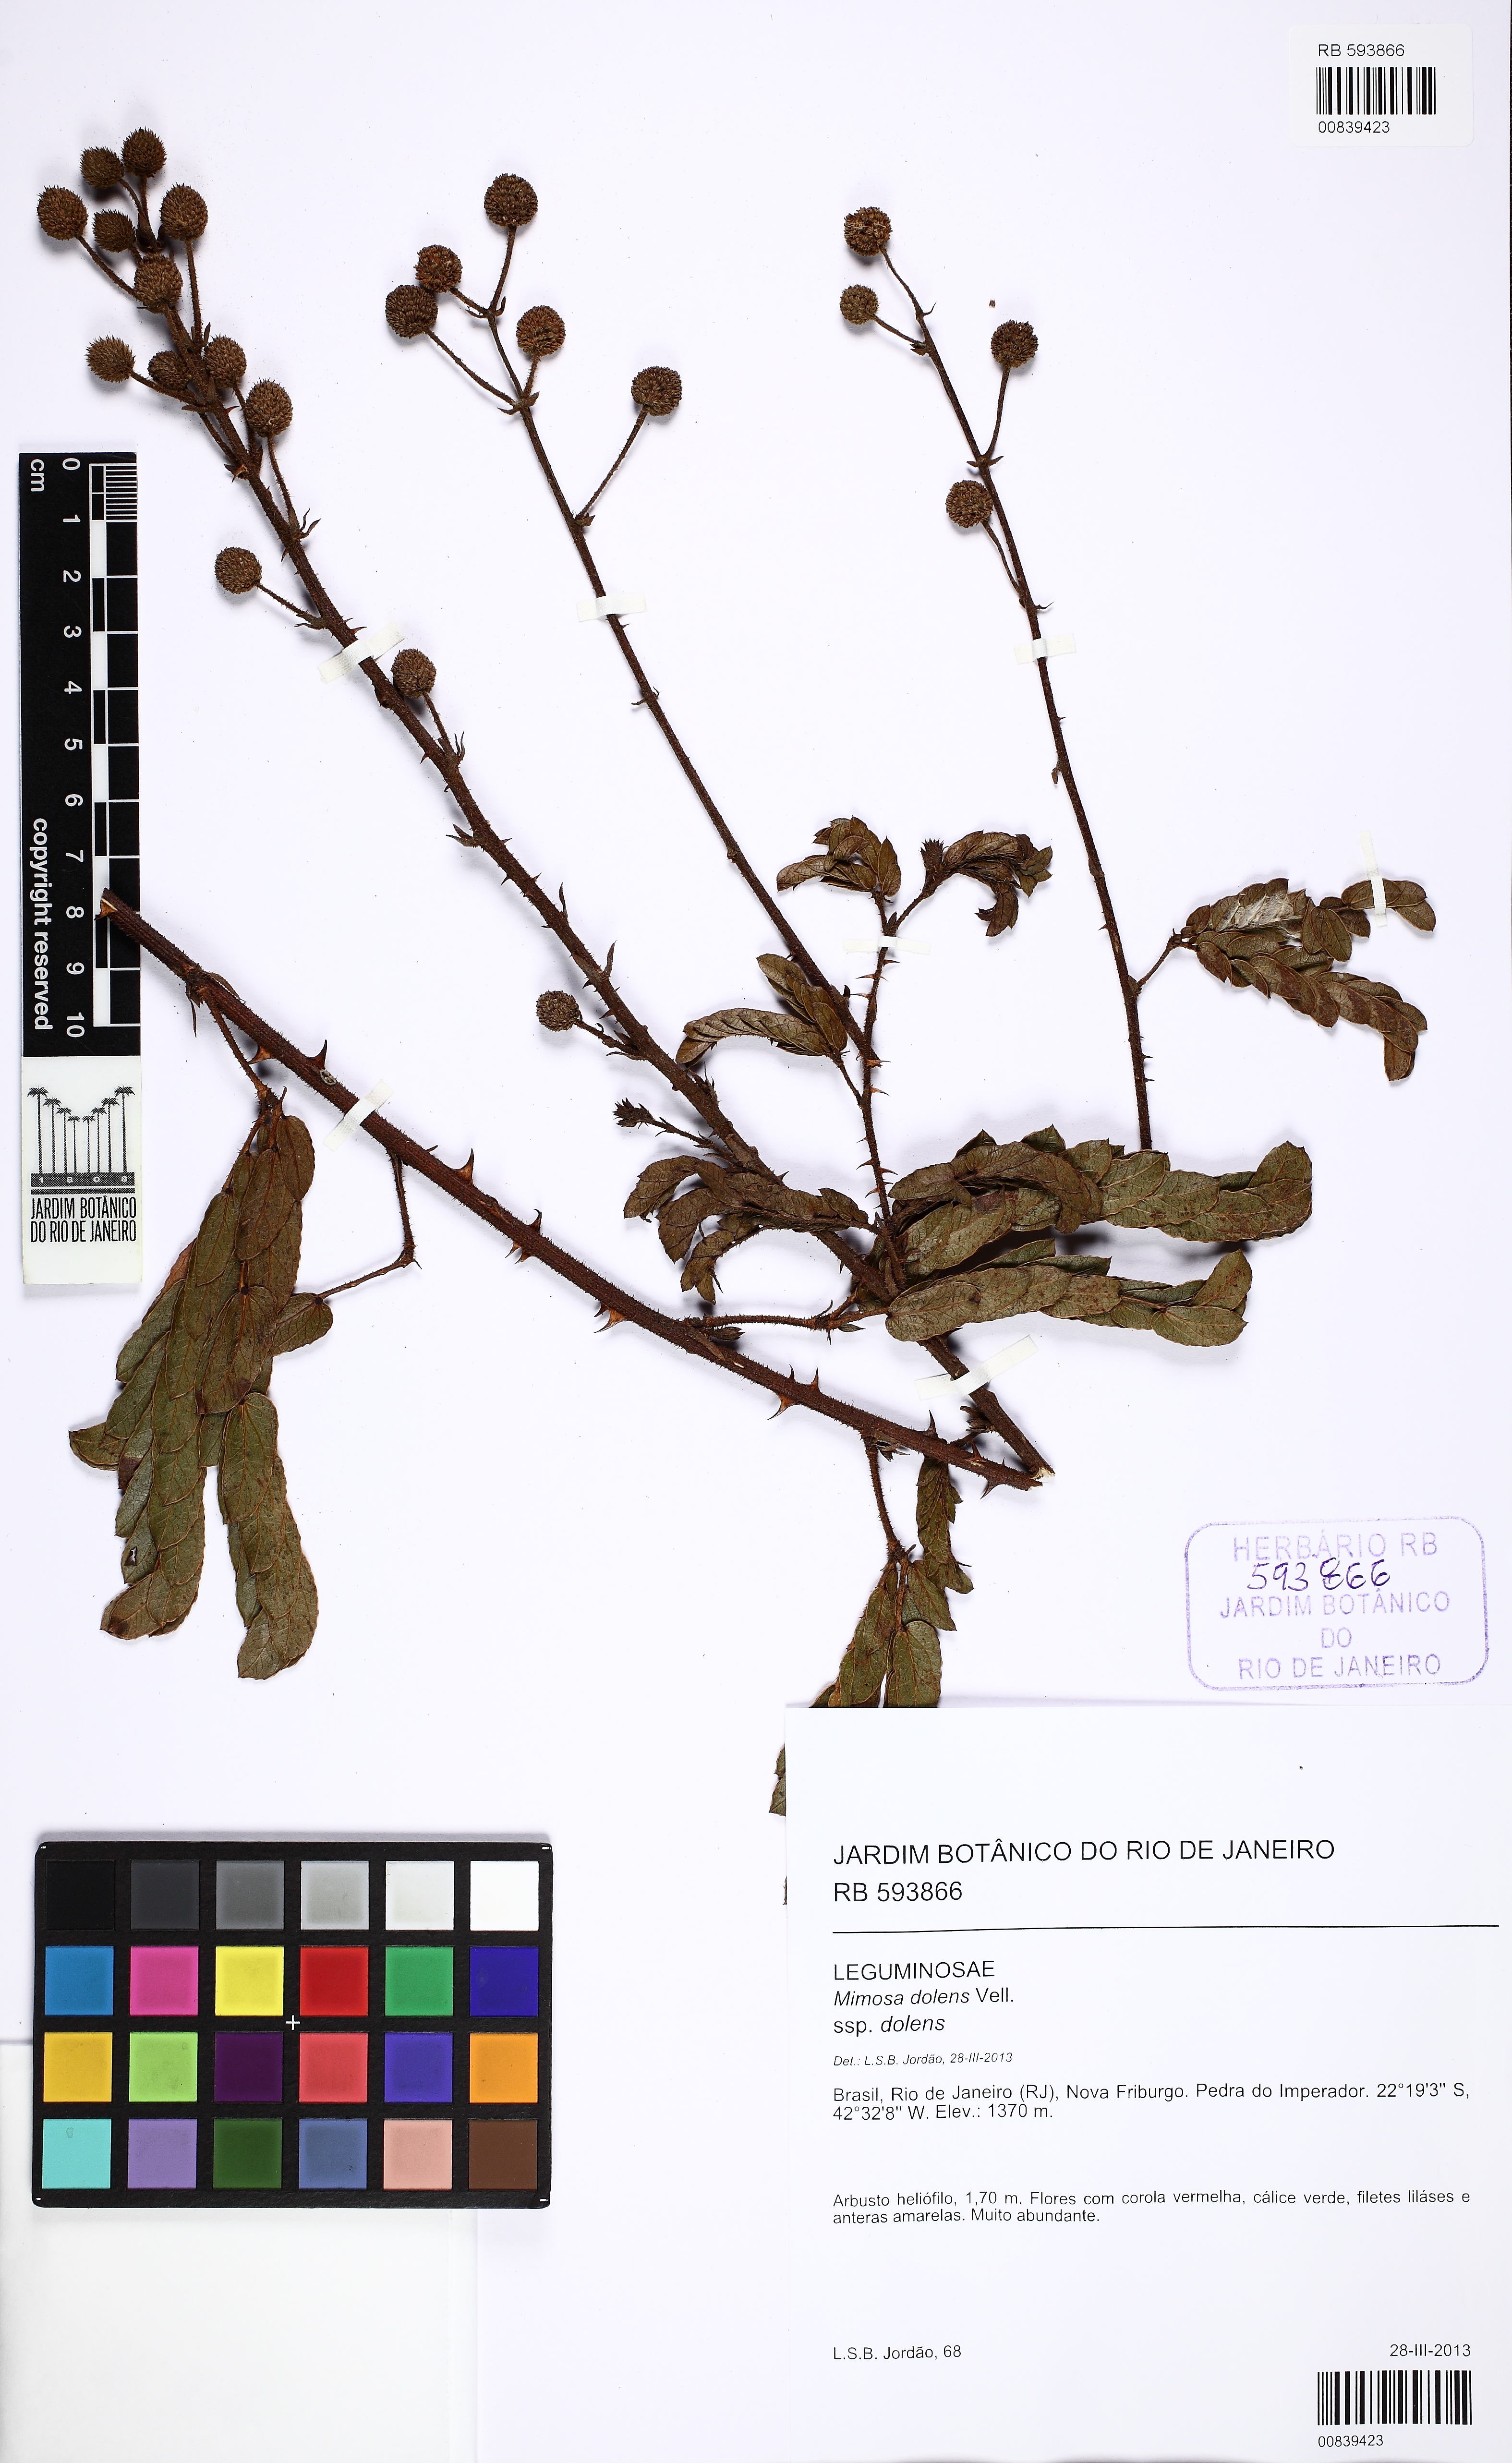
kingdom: Plantae
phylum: Tracheophyta
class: Magnoliopsida
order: Fabales
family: Fabaceae
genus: Mimosa
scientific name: Mimosa dolens
